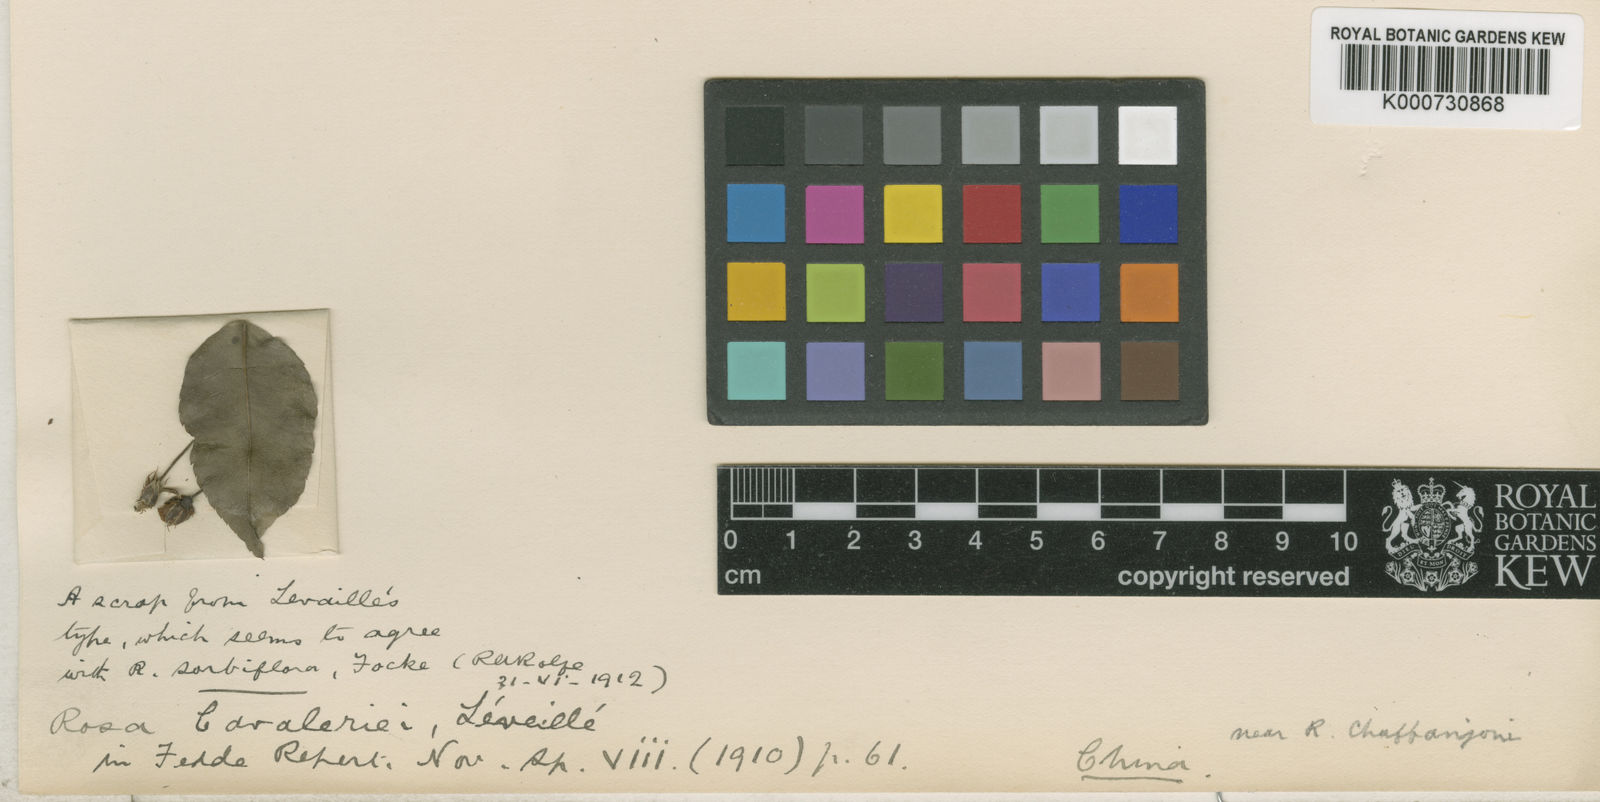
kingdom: Plantae
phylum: Tracheophyta
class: Magnoliopsida
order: Rosales
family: Rosaceae
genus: Rosa
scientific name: Rosa indica
